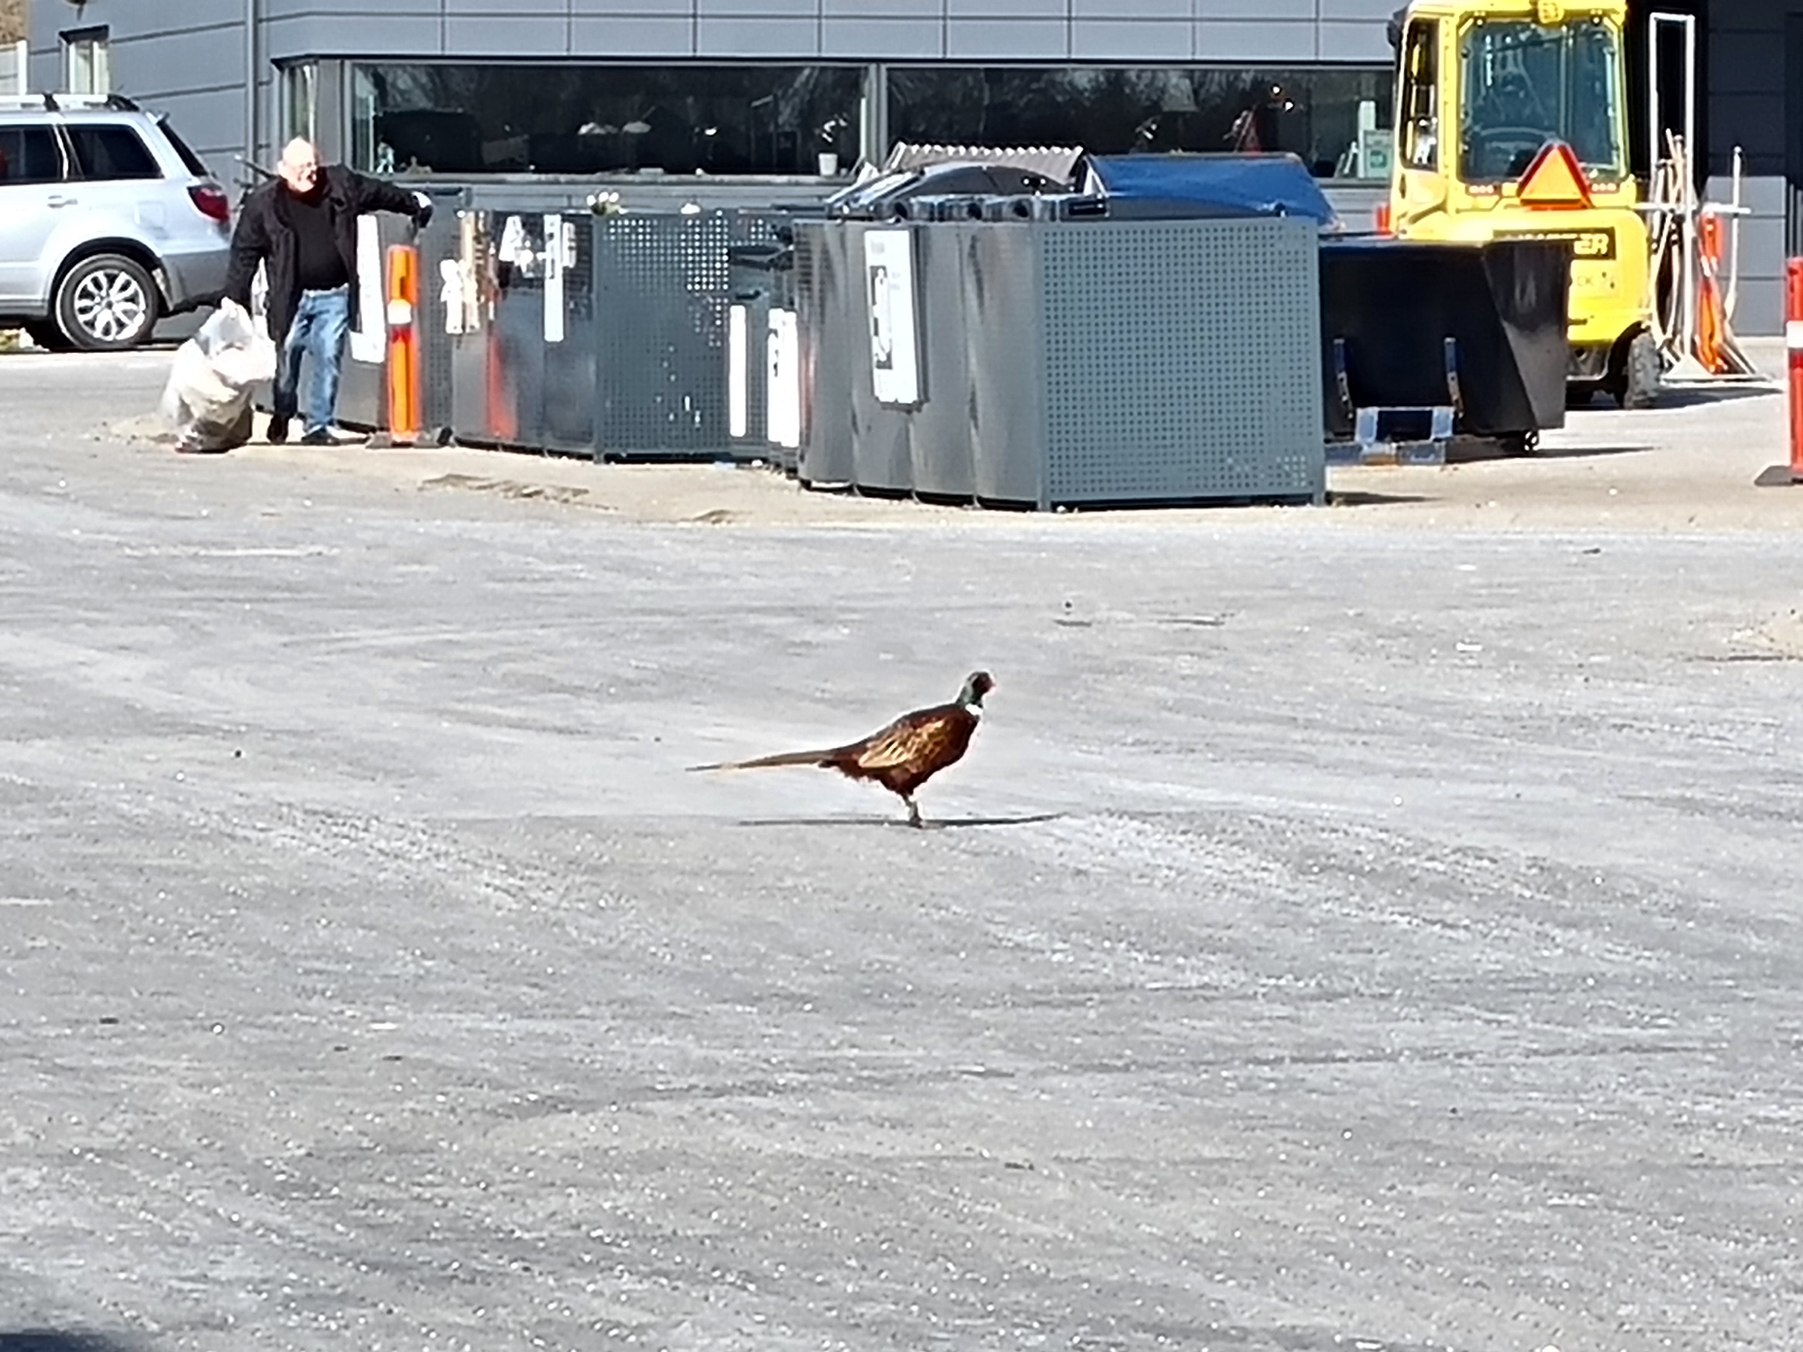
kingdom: Animalia
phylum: Chordata
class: Aves
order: Galliformes
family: Phasianidae
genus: Phasianus
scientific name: Phasianus colchicus
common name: Fasan
